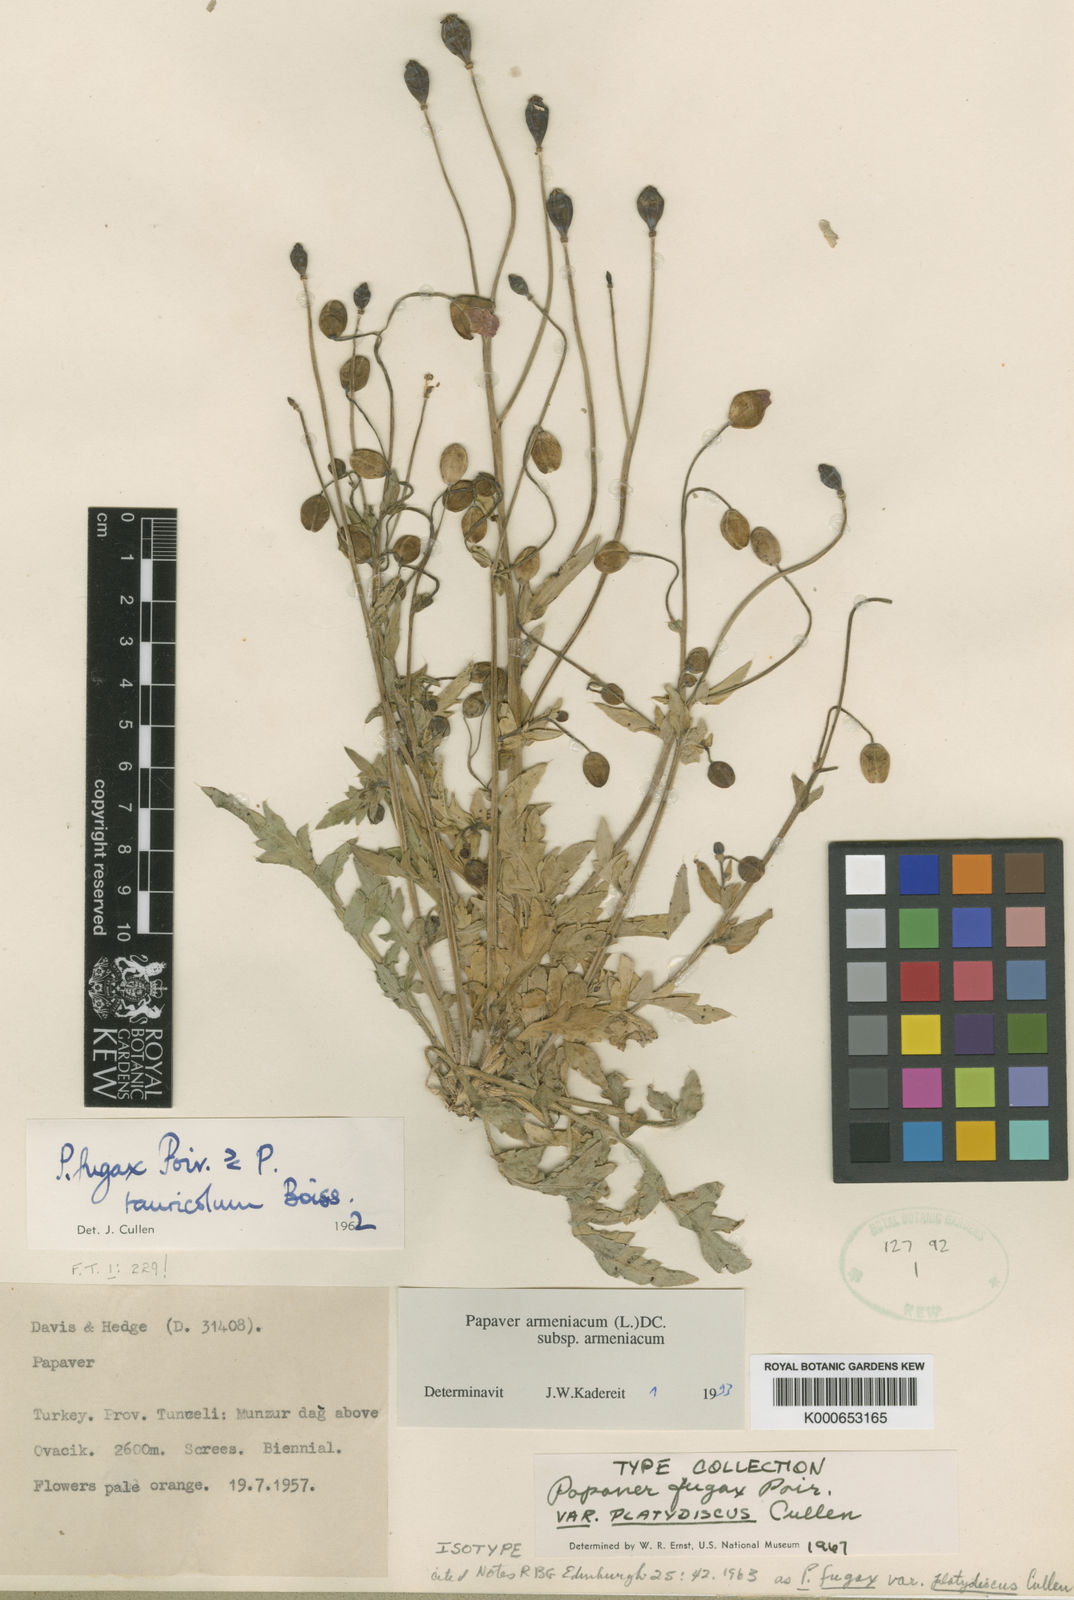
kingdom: Plantae
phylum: Tracheophyta
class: Magnoliopsida
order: Ranunculales
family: Papaveraceae
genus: Papaver
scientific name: Papaver armeniacum
